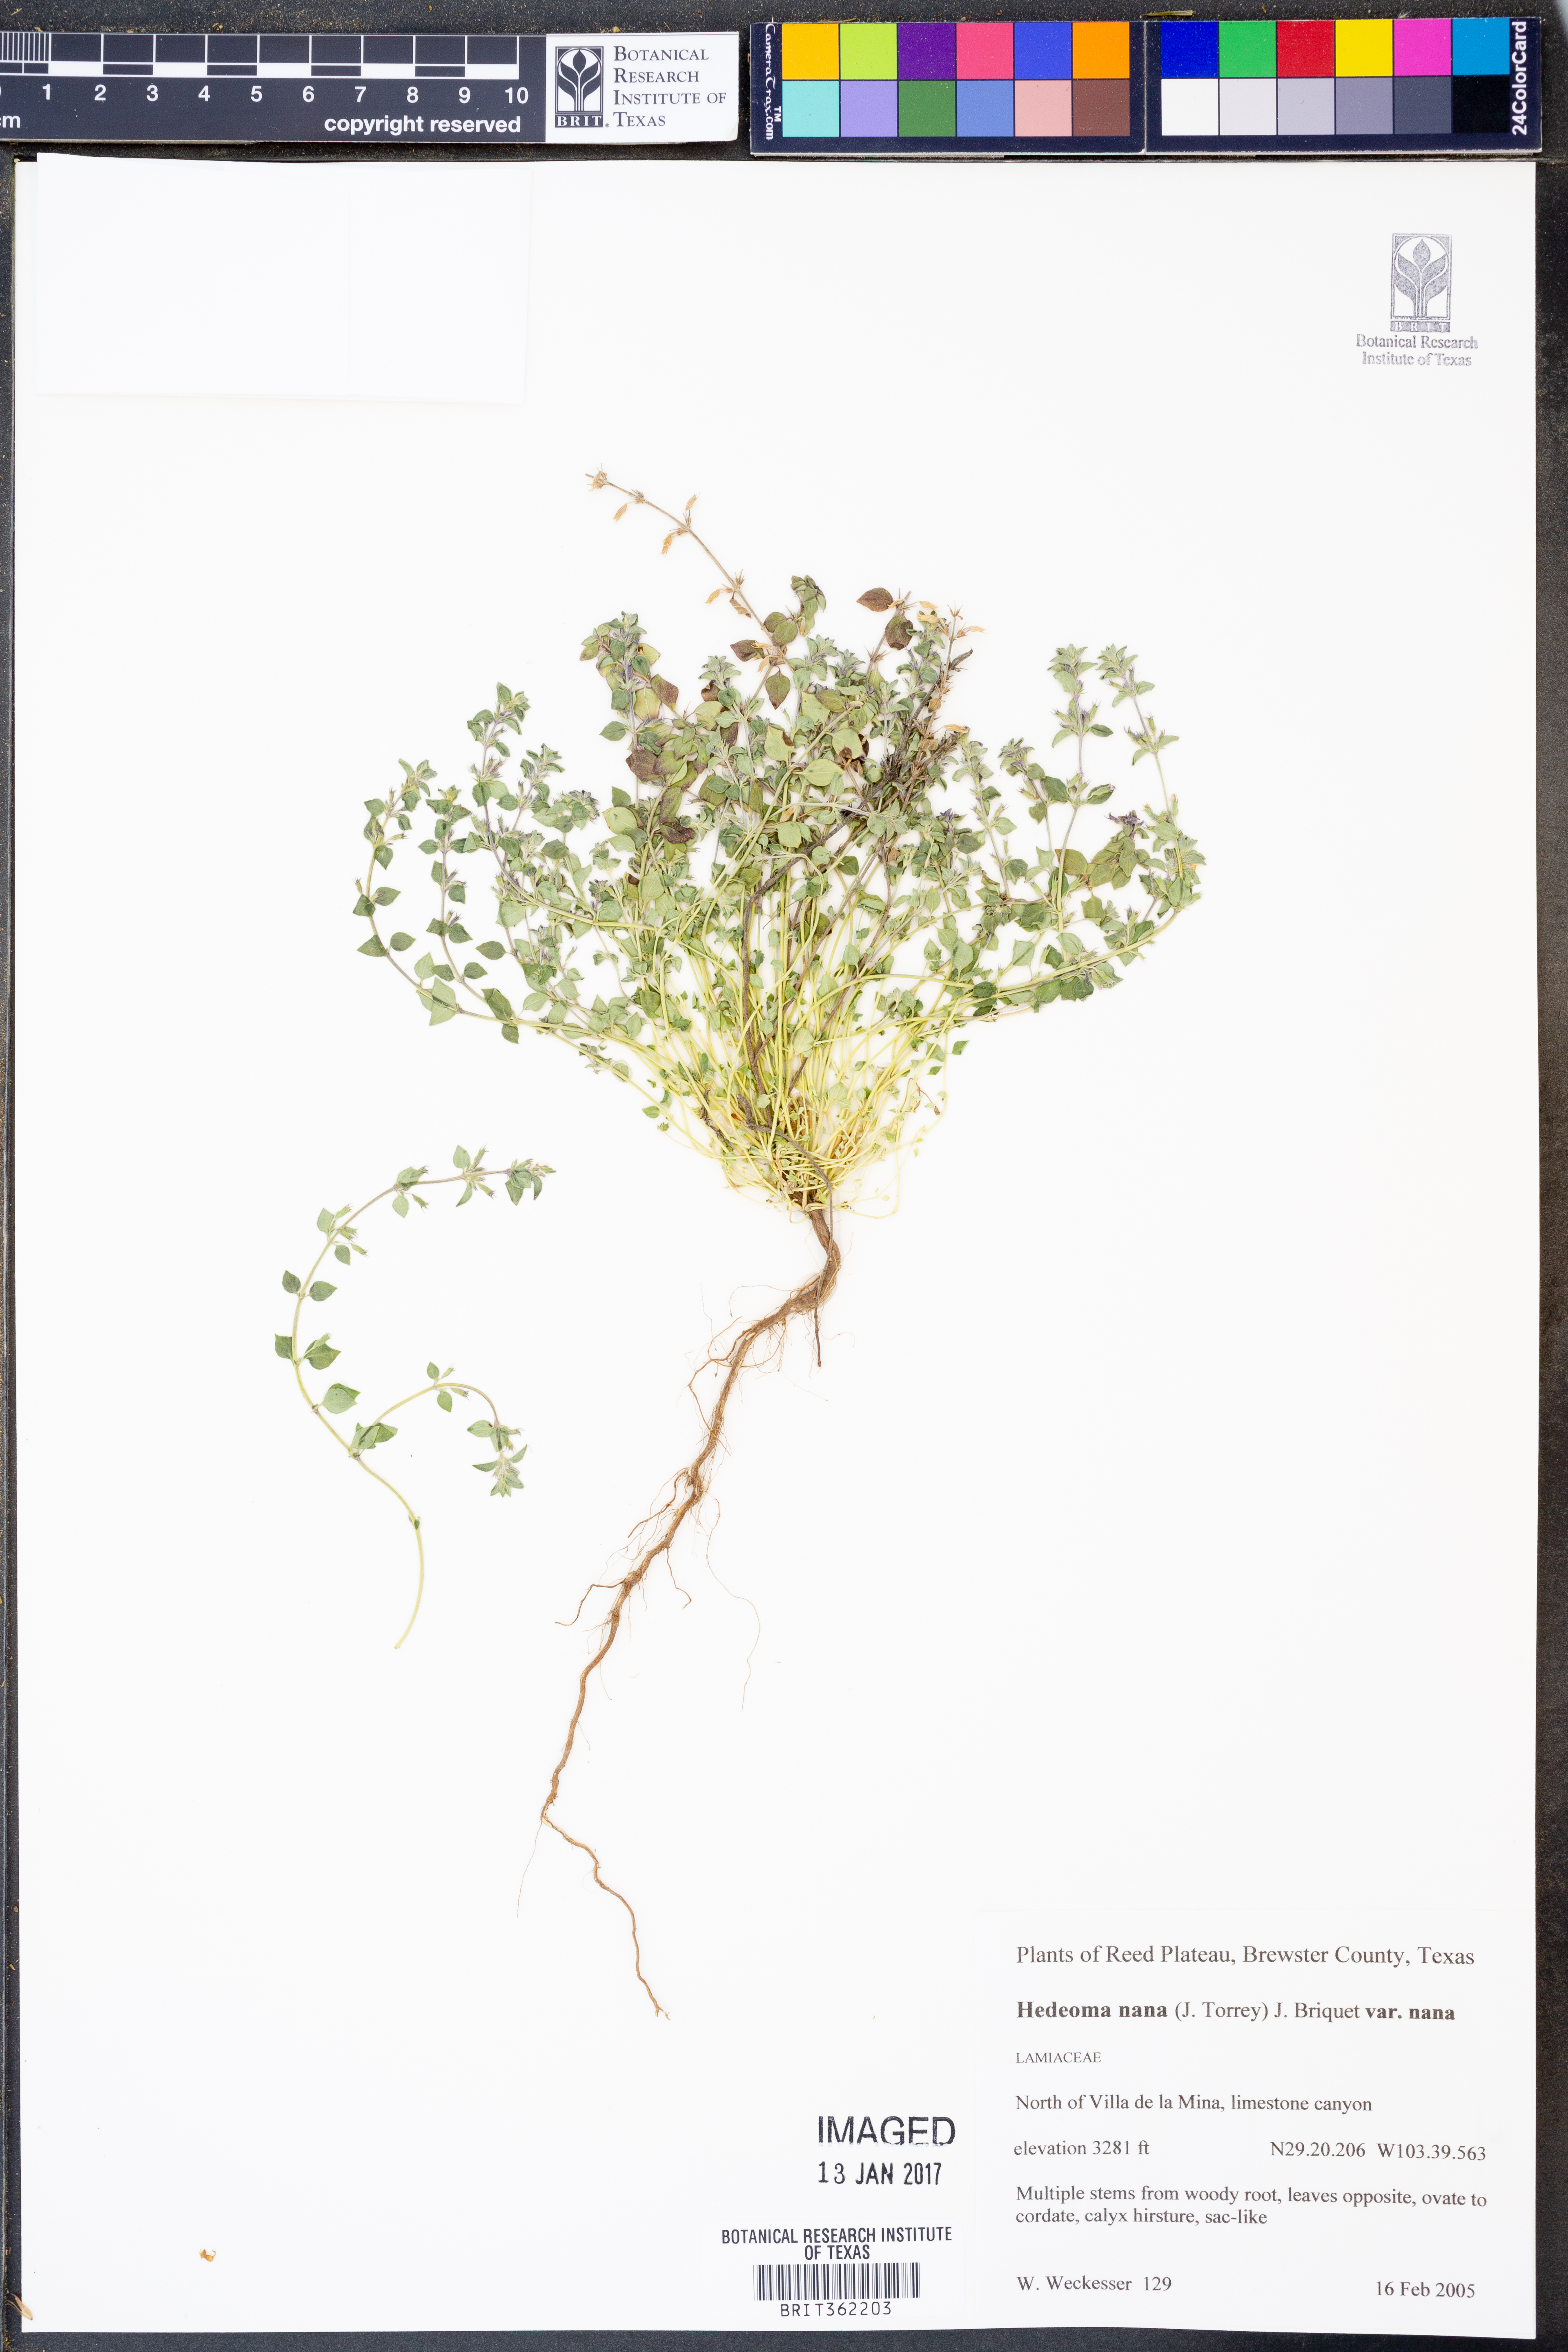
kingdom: Plantae
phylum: Tracheophyta
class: Magnoliopsida
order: Lamiales
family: Lamiaceae
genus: Hedeoma
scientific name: Hedeoma nana
